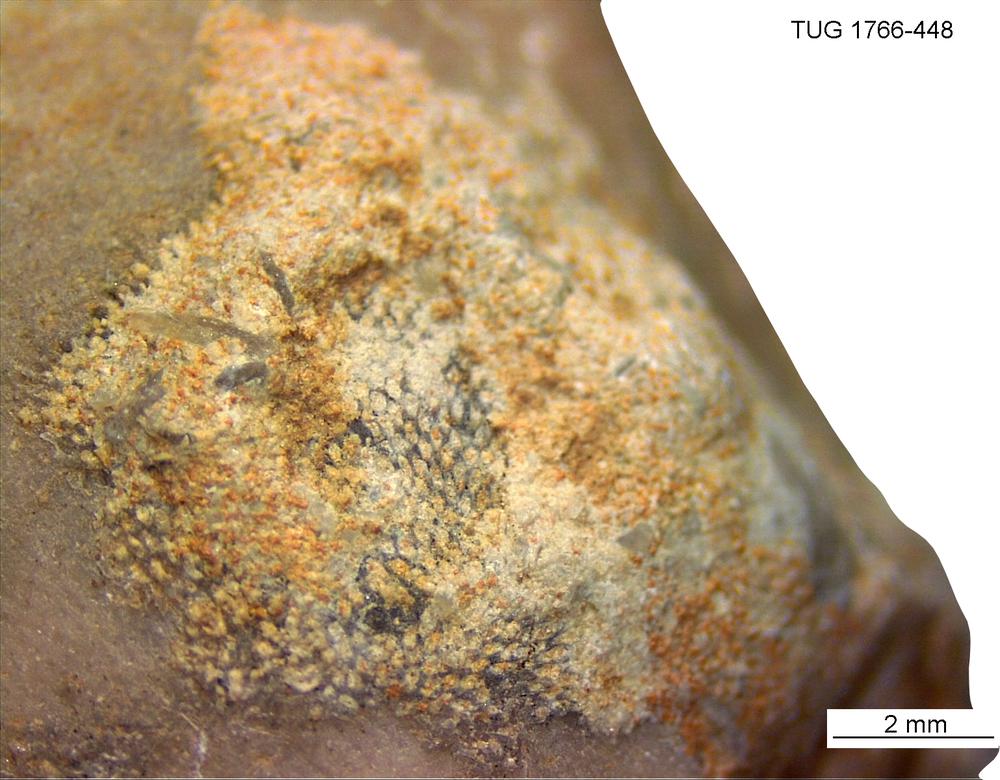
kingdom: Animalia
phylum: Bryozoa
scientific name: Bryozoa
